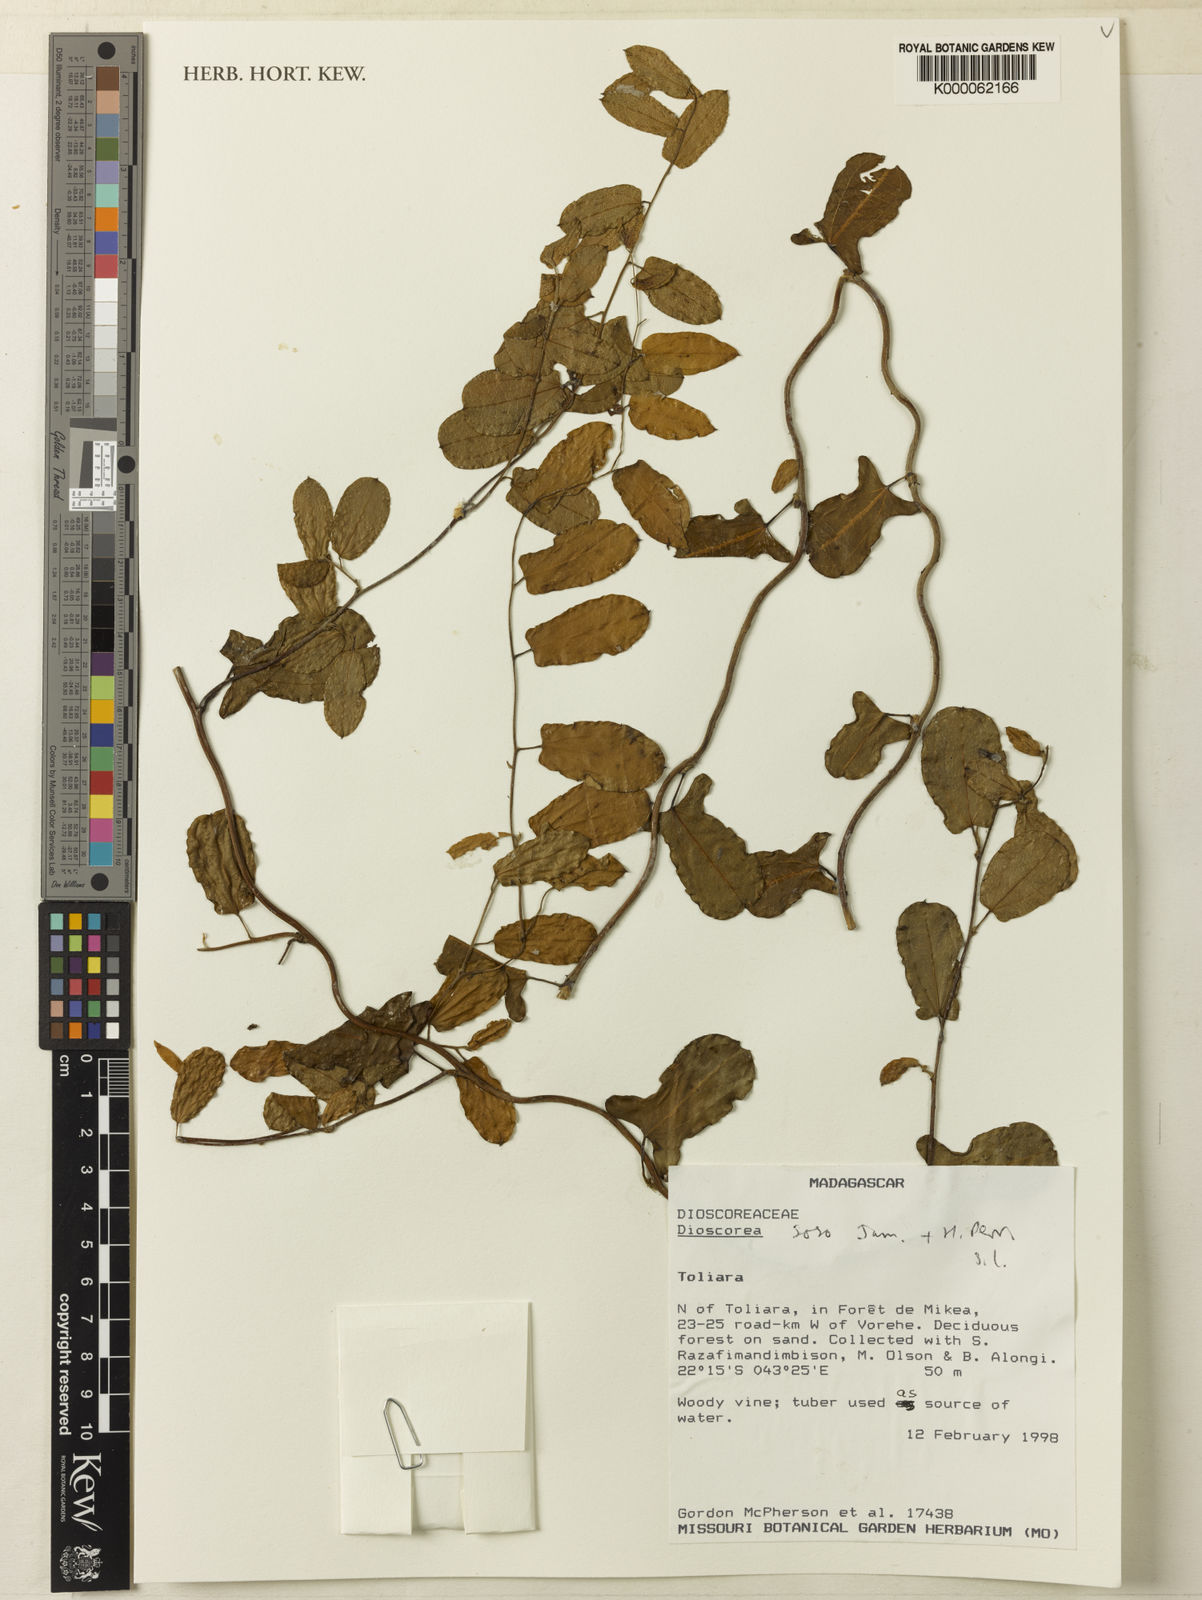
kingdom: Plantae
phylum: Tracheophyta
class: Liliopsida
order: Dioscoreales
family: Dioscoreaceae
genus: Dioscorea
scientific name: Dioscorea soso
